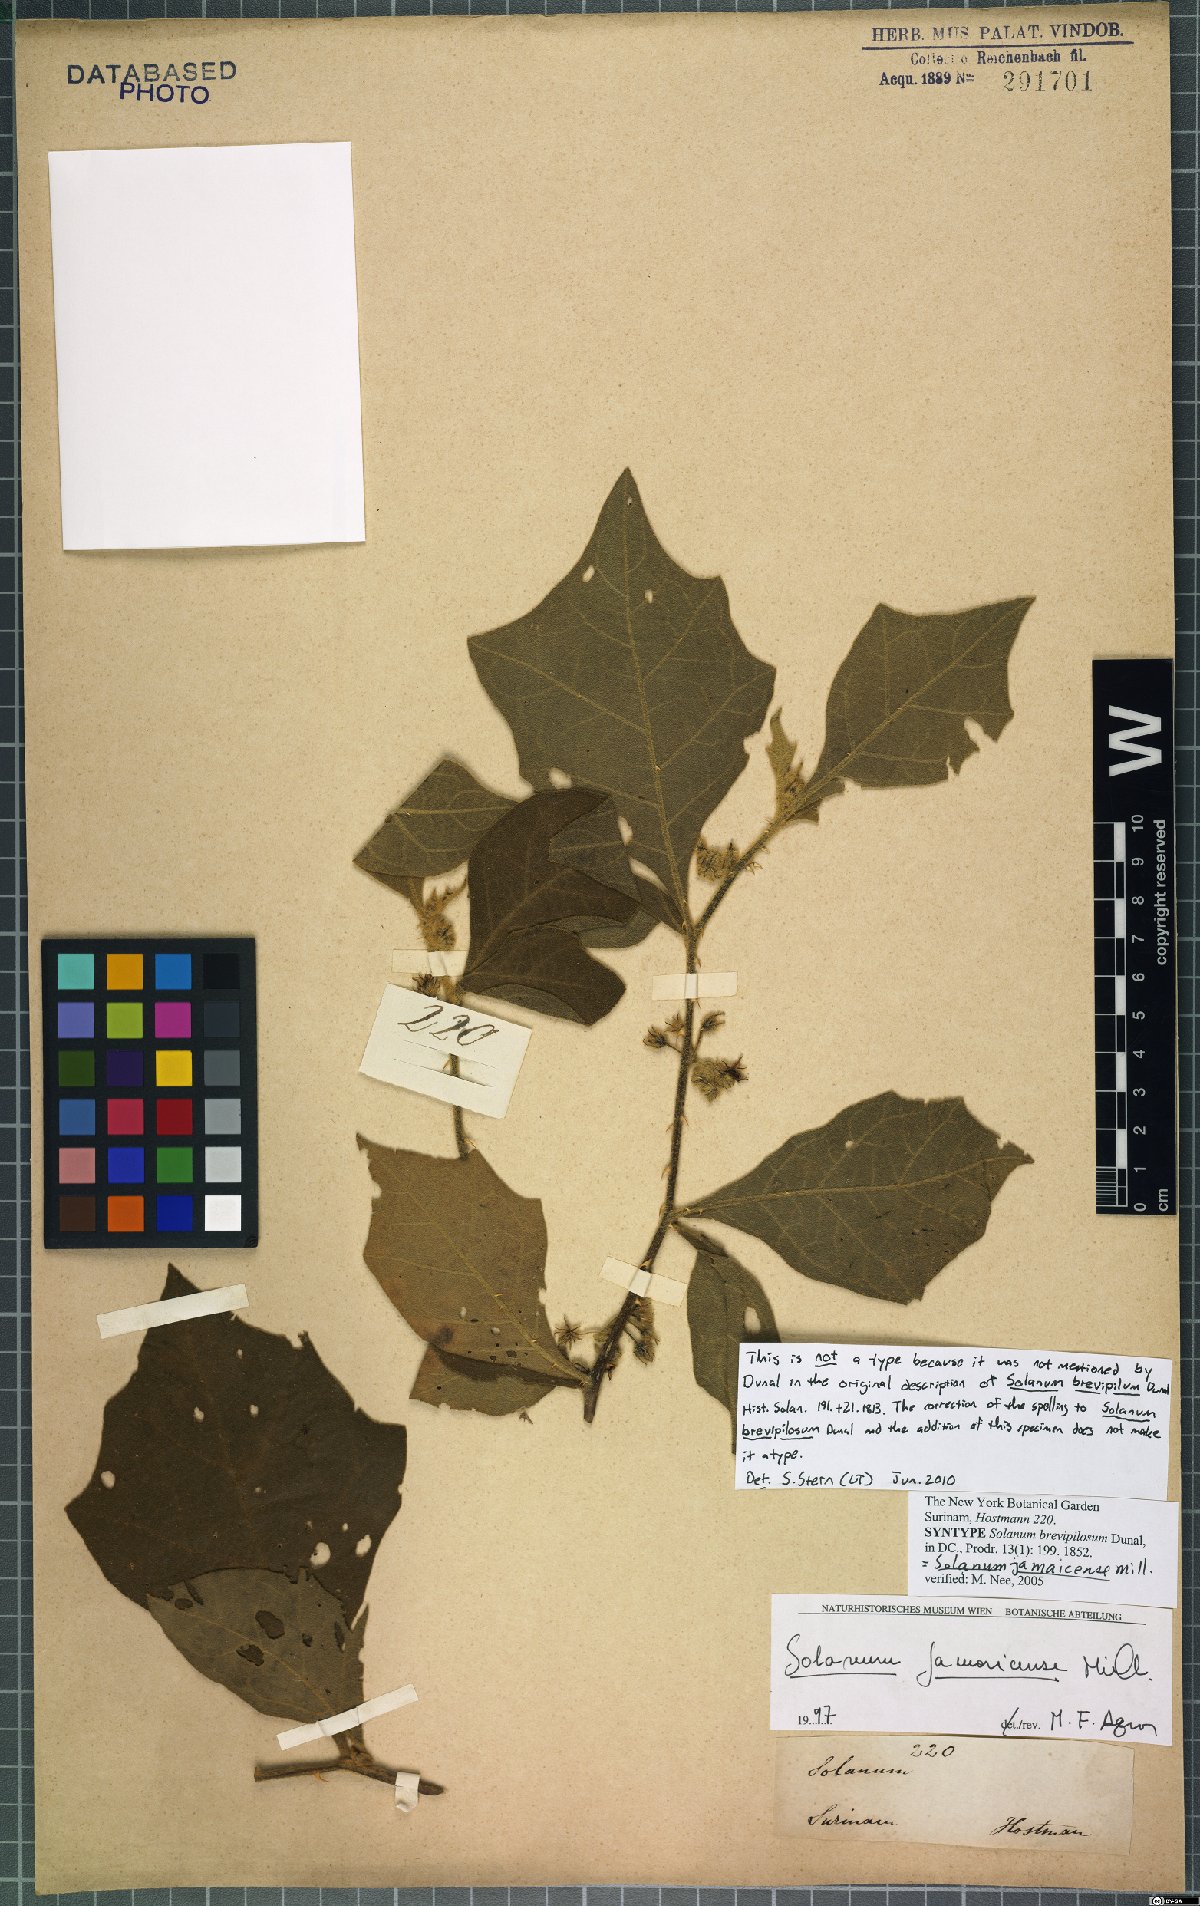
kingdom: Plantae
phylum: Tracheophyta
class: Magnoliopsida
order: Solanales
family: Solanaceae
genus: Solanum
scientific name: Solanum jamaicense
